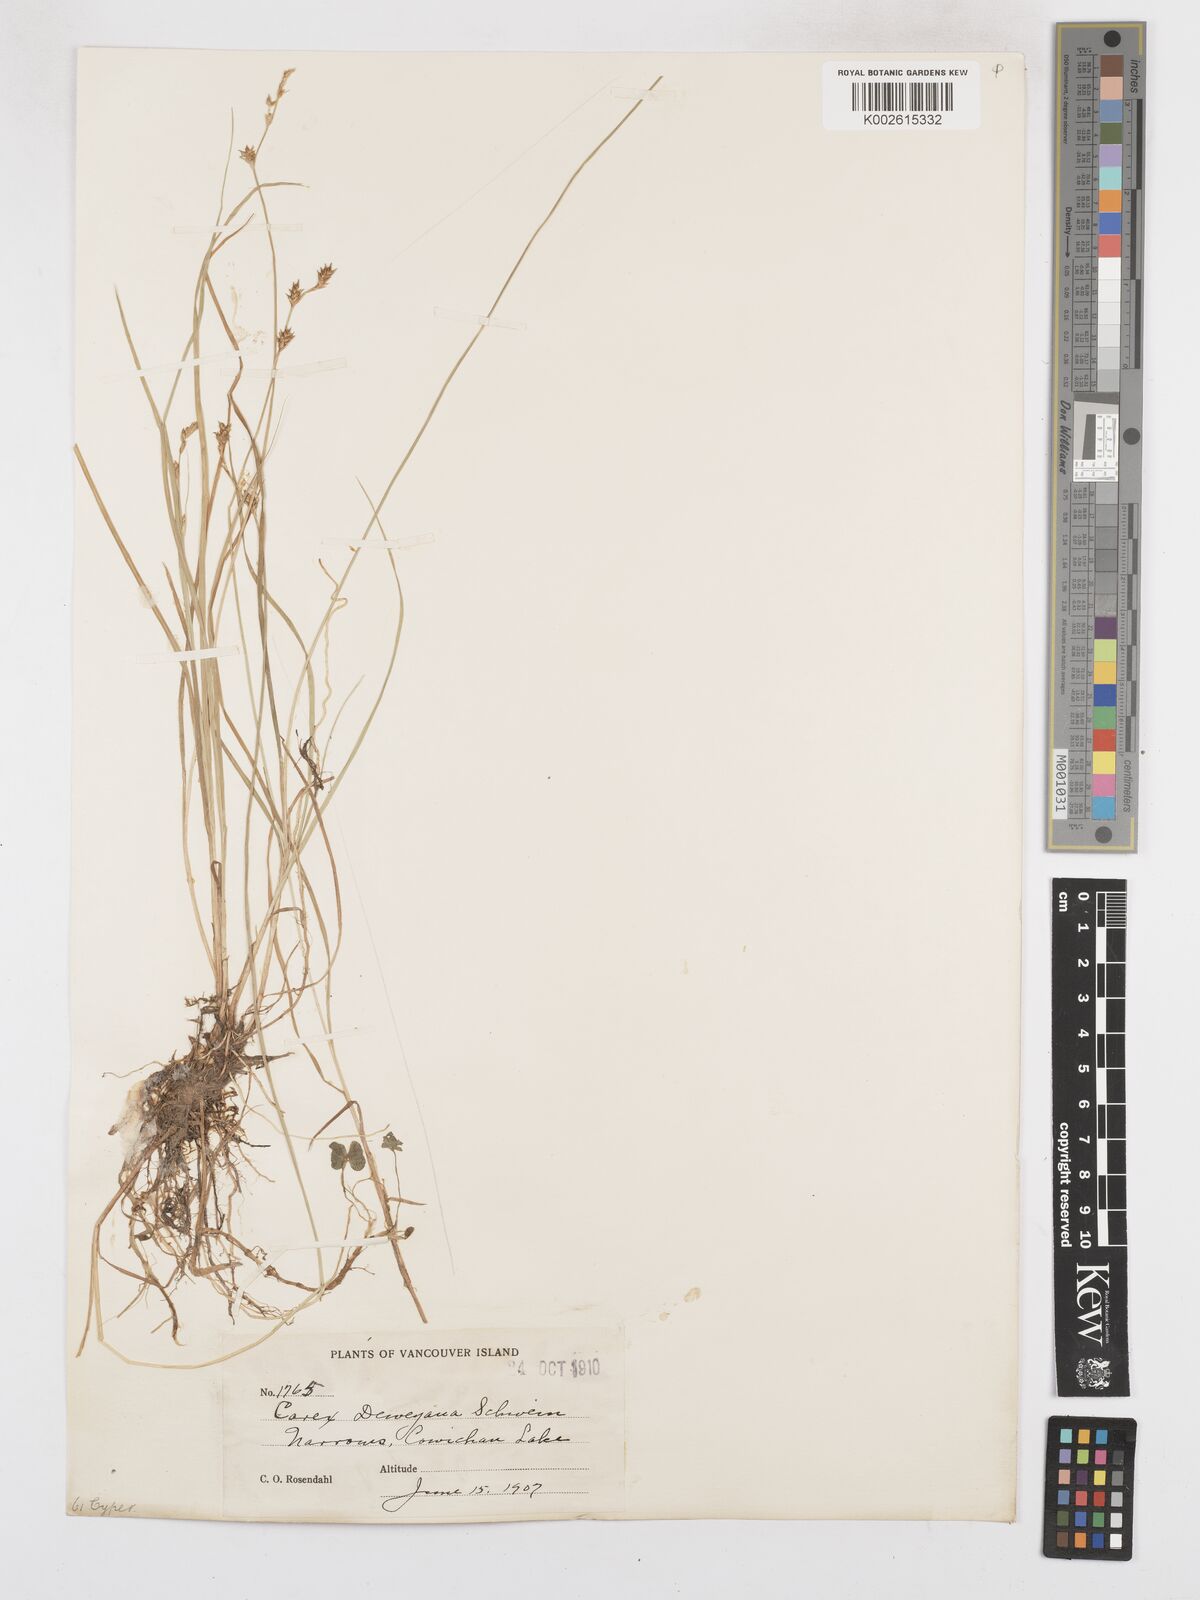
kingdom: Plantae
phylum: Tracheophyta
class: Liliopsida
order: Poales
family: Cyperaceae
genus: Carex
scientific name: Carex deweyana
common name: Dewey's sedge
